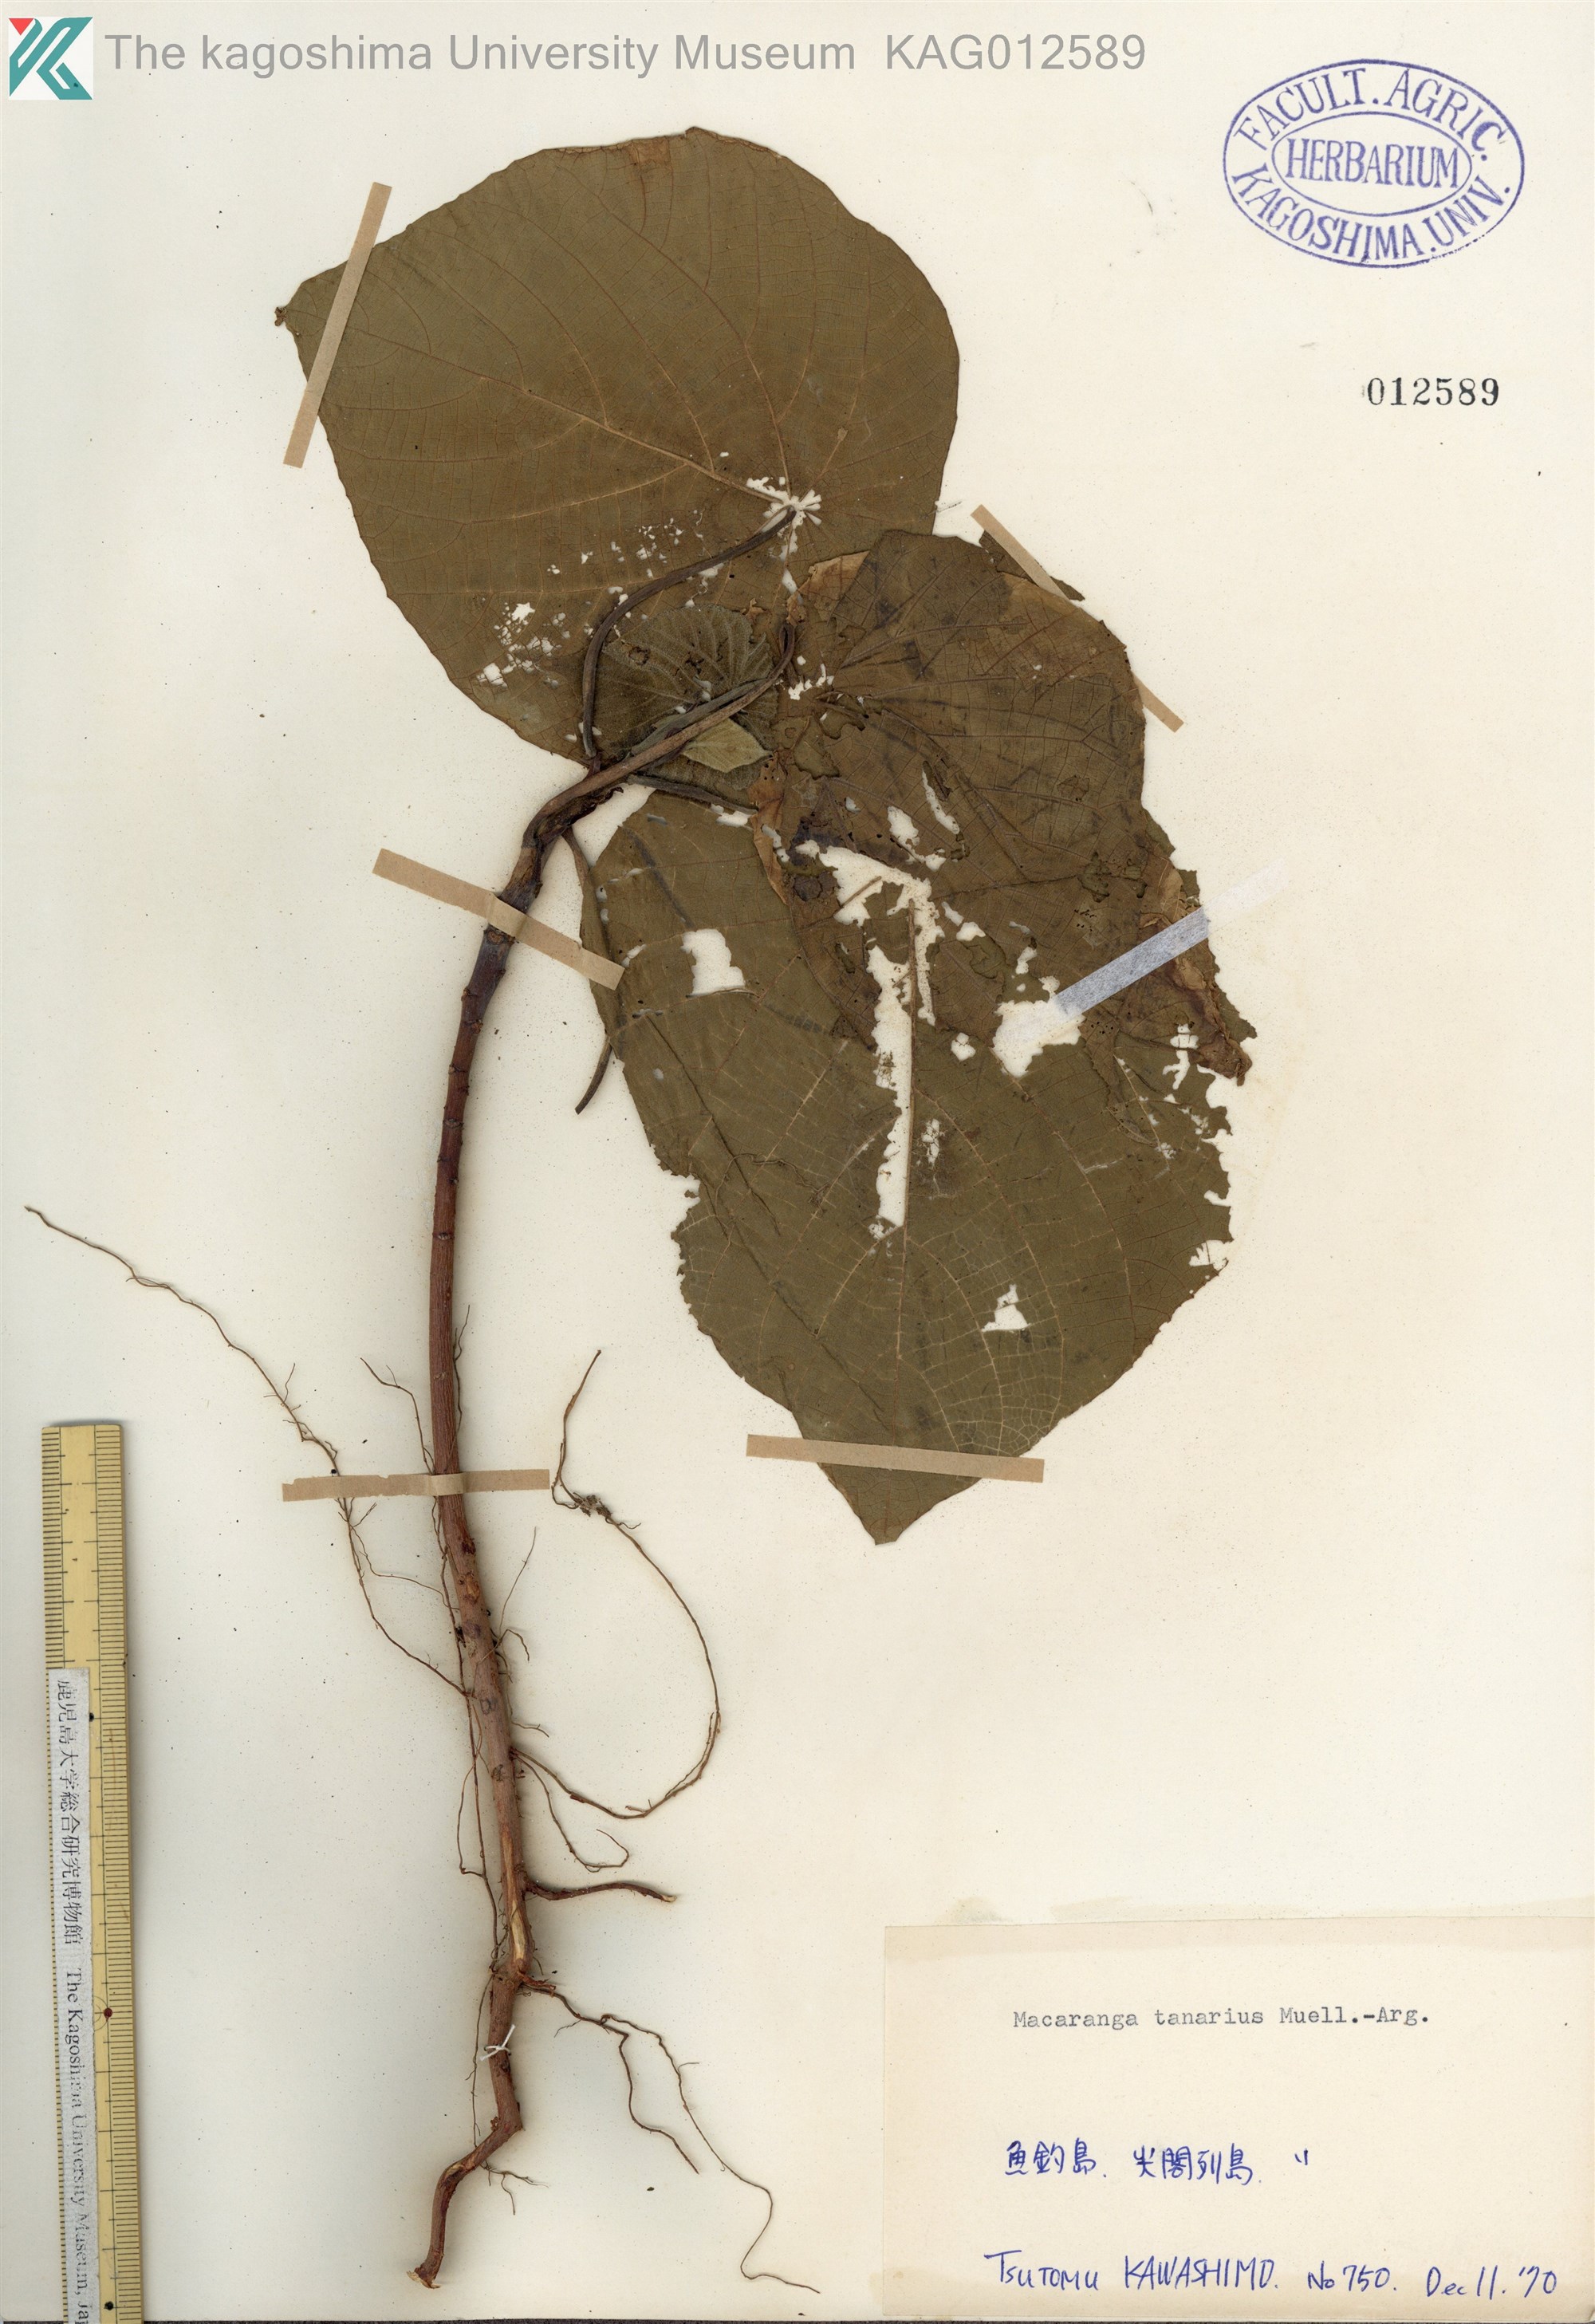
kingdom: Plantae
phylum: Tracheophyta
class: Magnoliopsida
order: Malpighiales
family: Euphorbiaceae
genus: Macaranga
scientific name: Macaranga tanarius
